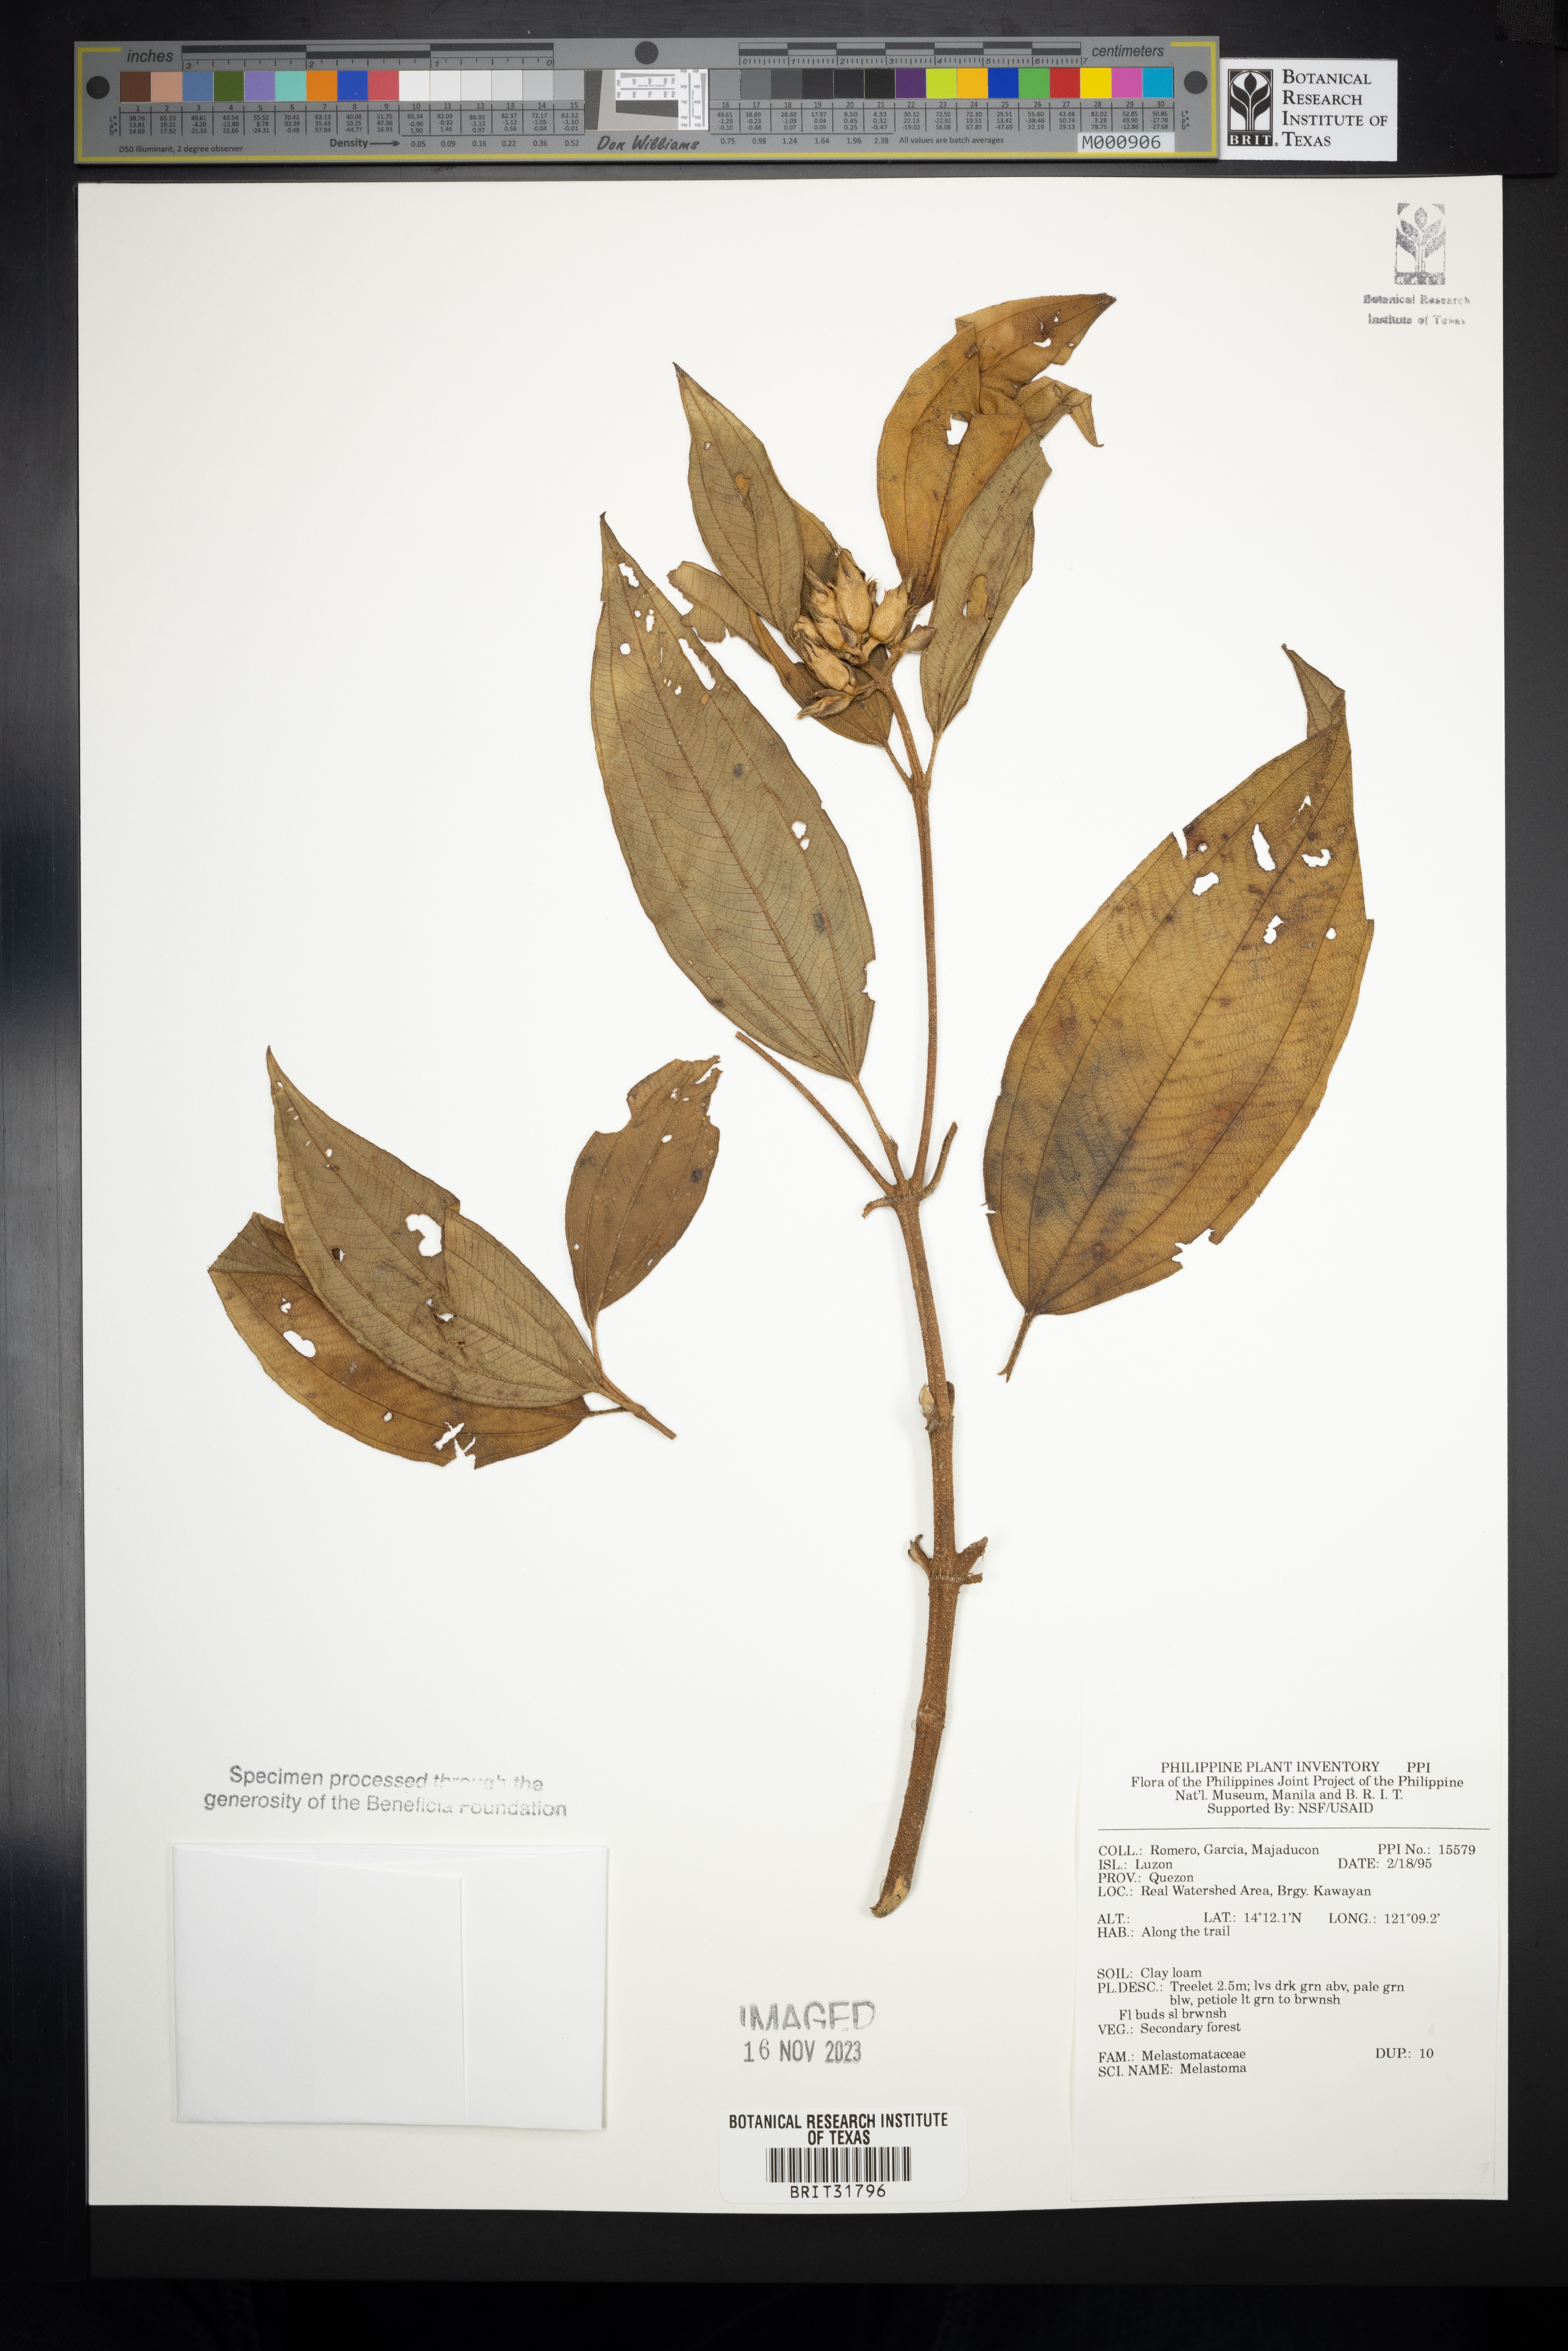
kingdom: Plantae
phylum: Tracheophyta
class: Magnoliopsida
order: Myrtales
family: Melastomataceae
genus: Melastoma
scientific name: Melastoma
